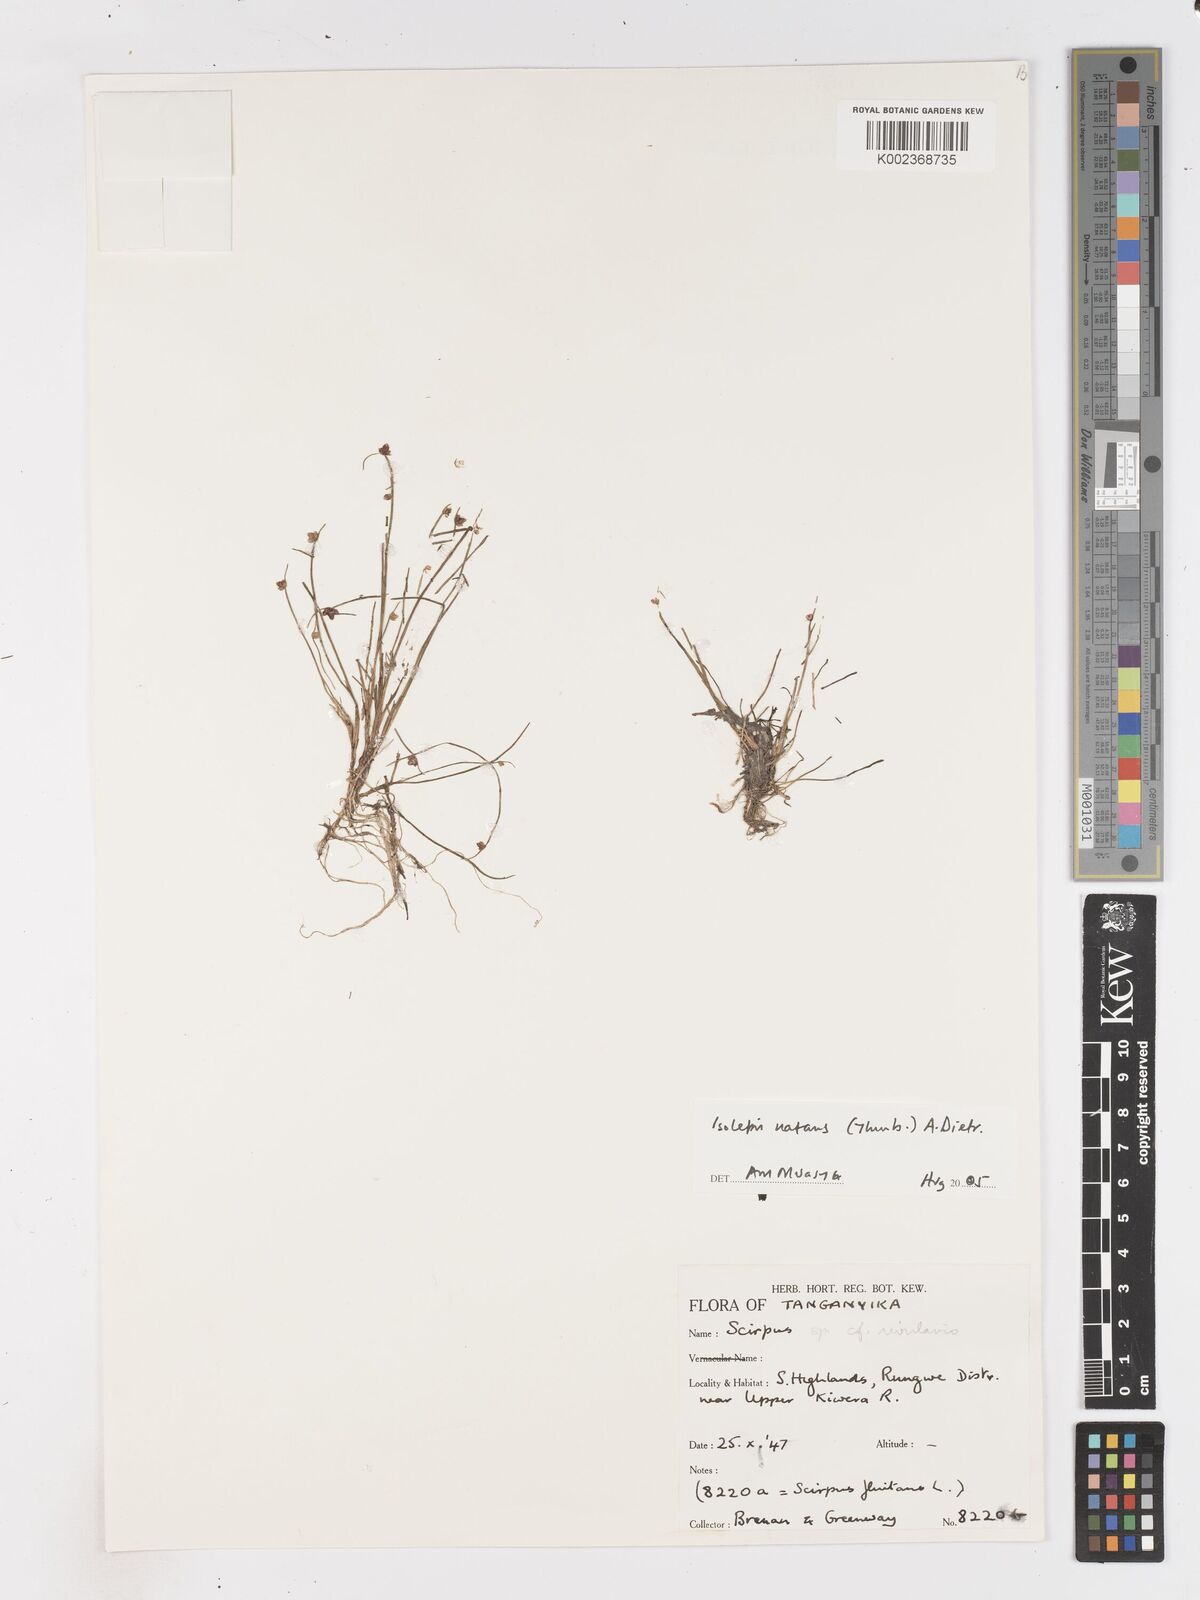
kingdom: Plantae
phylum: Tracheophyta
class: Liliopsida
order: Poales
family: Cyperaceae
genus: Isolepis
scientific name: Isolepis natans
